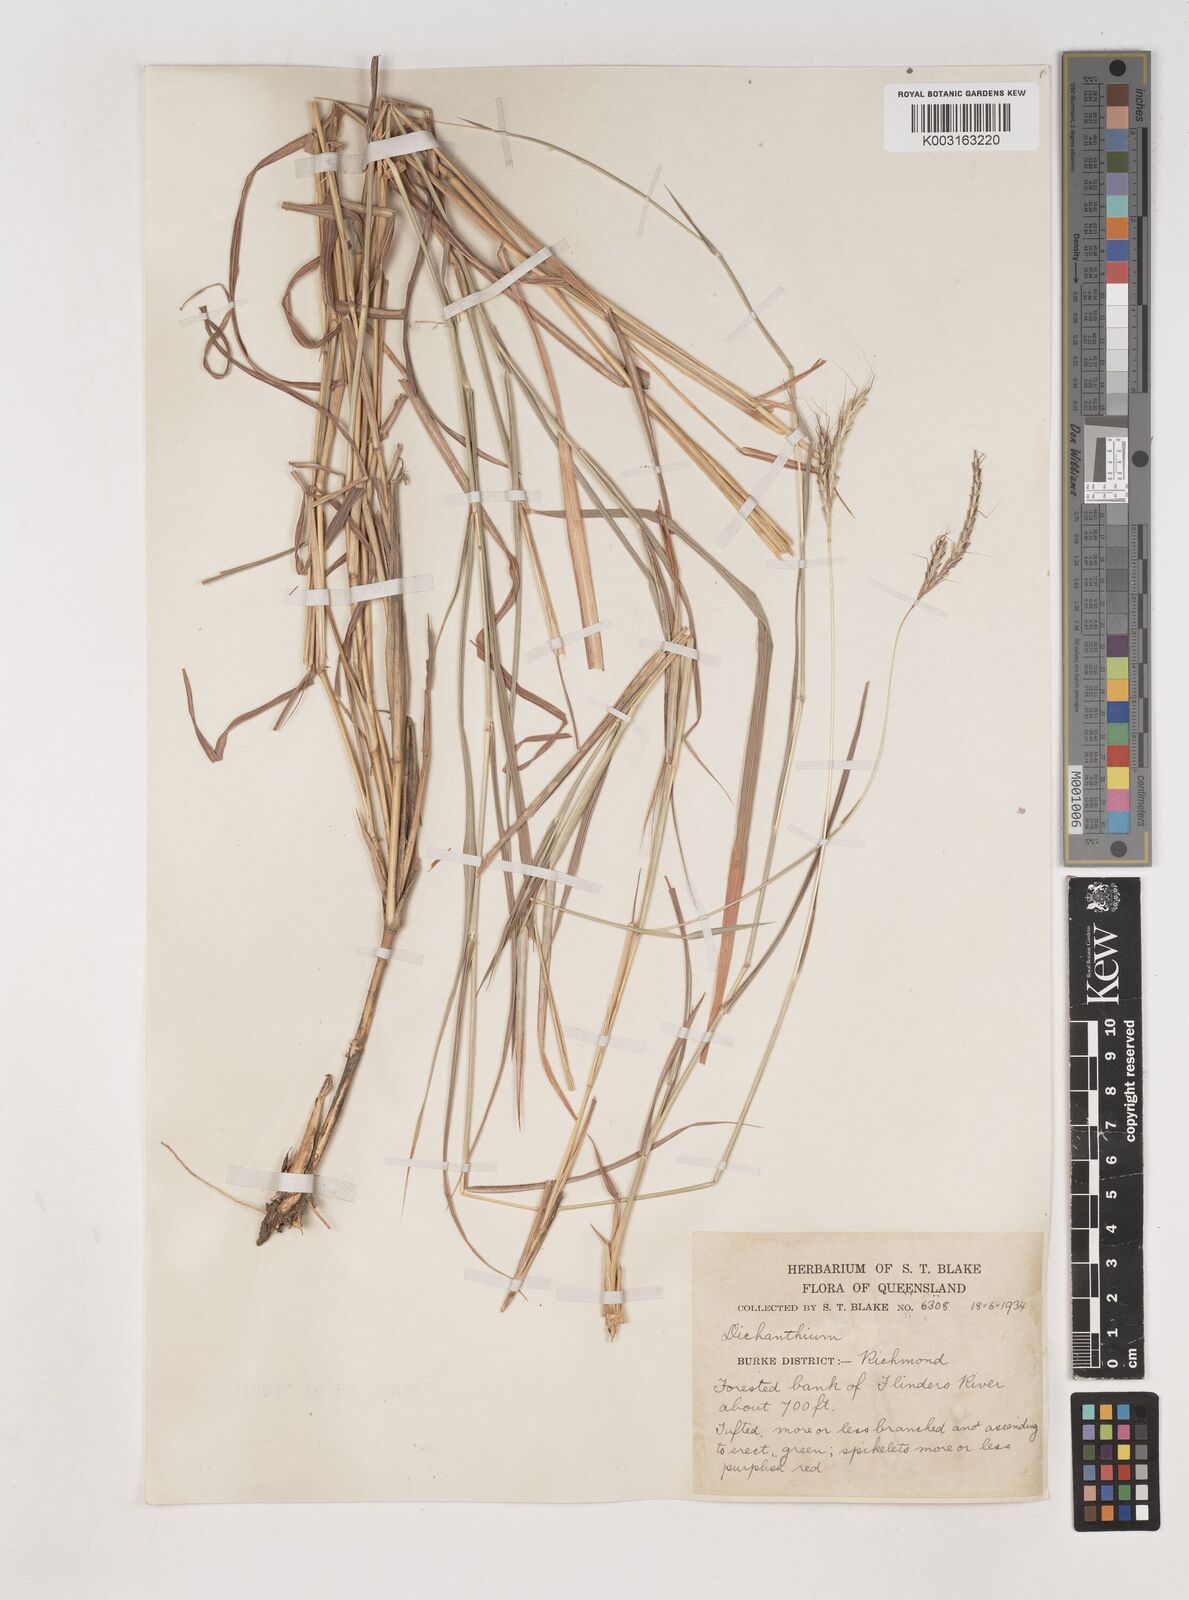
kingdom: Plantae
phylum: Tracheophyta
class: Liliopsida
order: Poales
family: Poaceae
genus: Dichanthium
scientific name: Dichanthium fecundum
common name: Bundle-bundle
